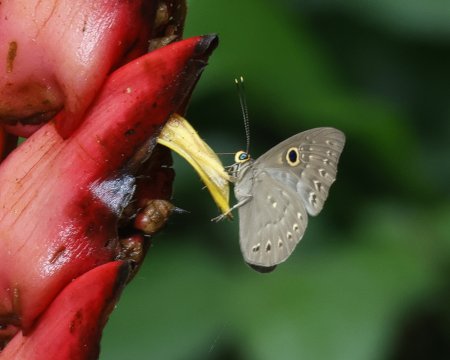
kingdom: Animalia
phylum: Cnidaria
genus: Eurybia
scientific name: Eurybia lycisca
